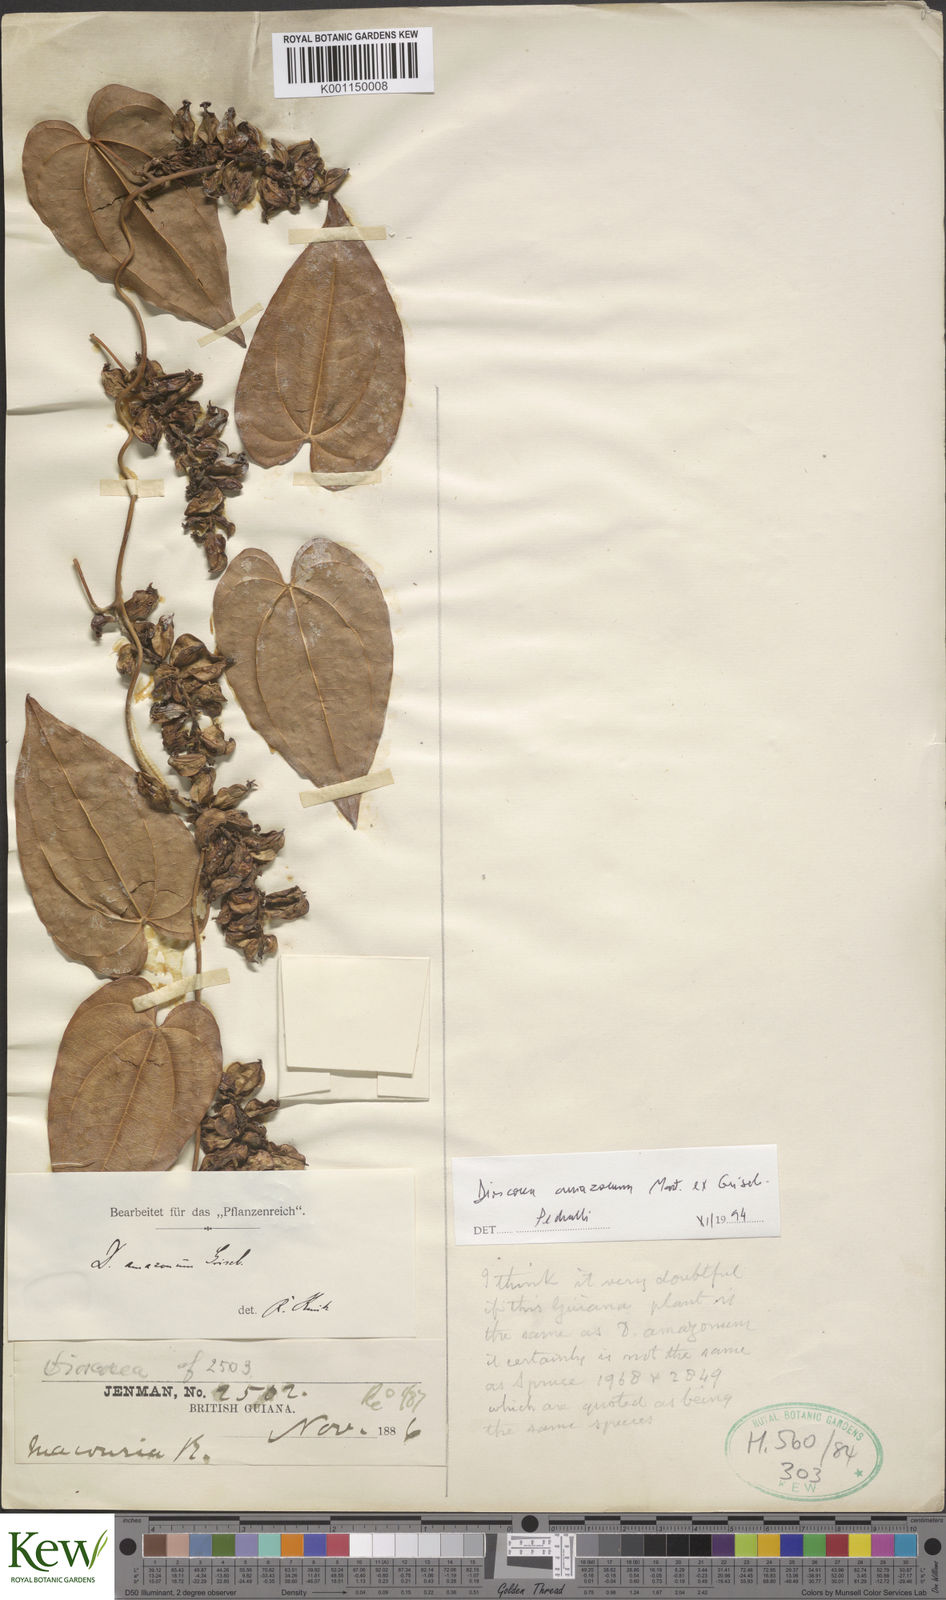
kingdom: Plantae
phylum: Tracheophyta
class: Liliopsida
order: Dioscoreales
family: Dioscoreaceae
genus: Dioscorea
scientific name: Dioscorea amazonum
